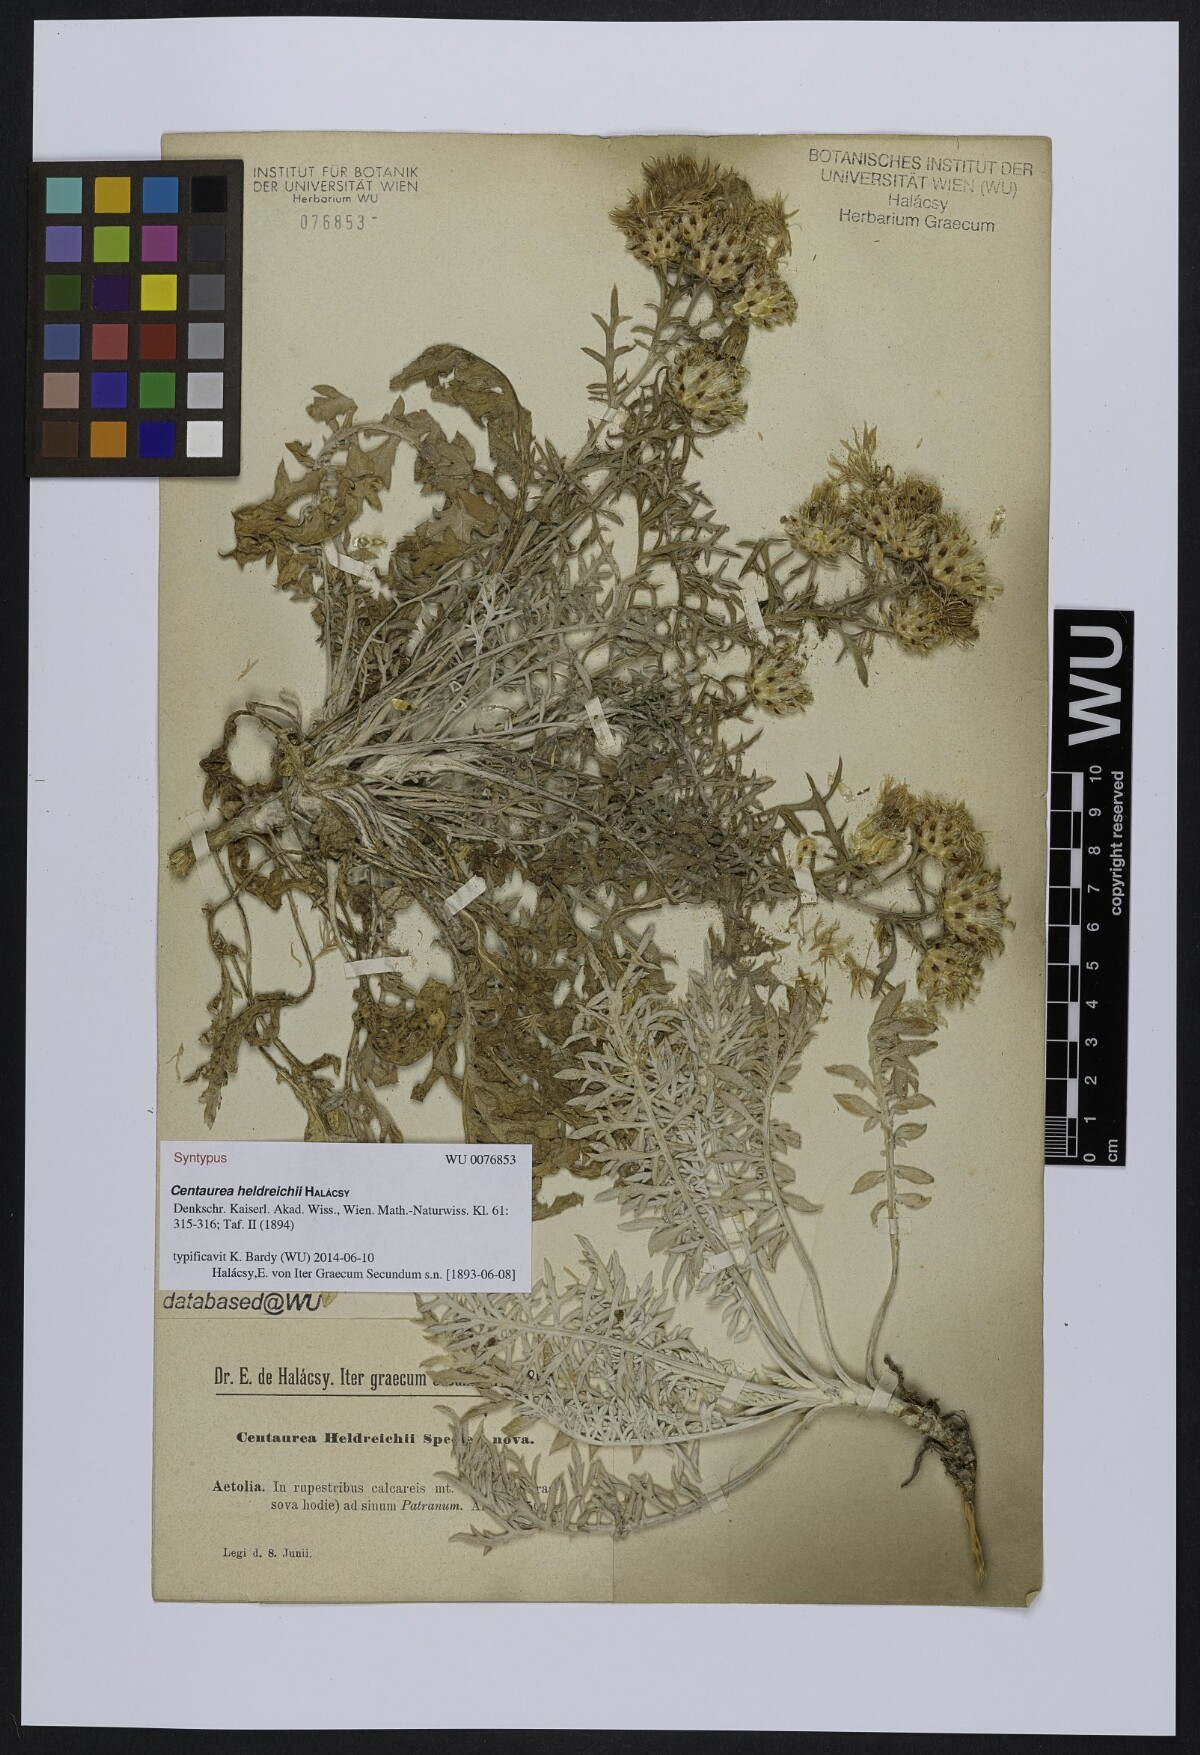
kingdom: Plantae
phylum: Tracheophyta
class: Magnoliopsida
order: Asterales
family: Asteraceae
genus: Centaurea
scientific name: Centaurea heldreichii
